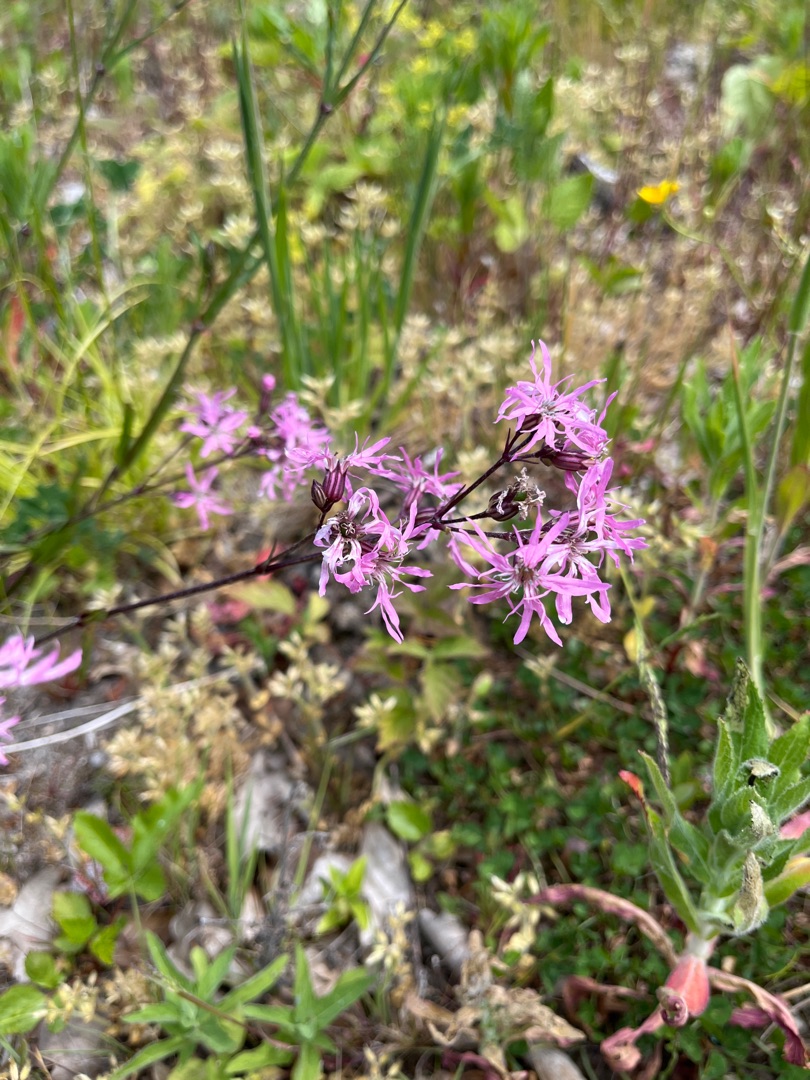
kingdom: Plantae
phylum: Tracheophyta
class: Magnoliopsida
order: Caryophyllales
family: Caryophyllaceae
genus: Silene
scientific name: Silene flos-cuculi
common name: Trævlekrone
